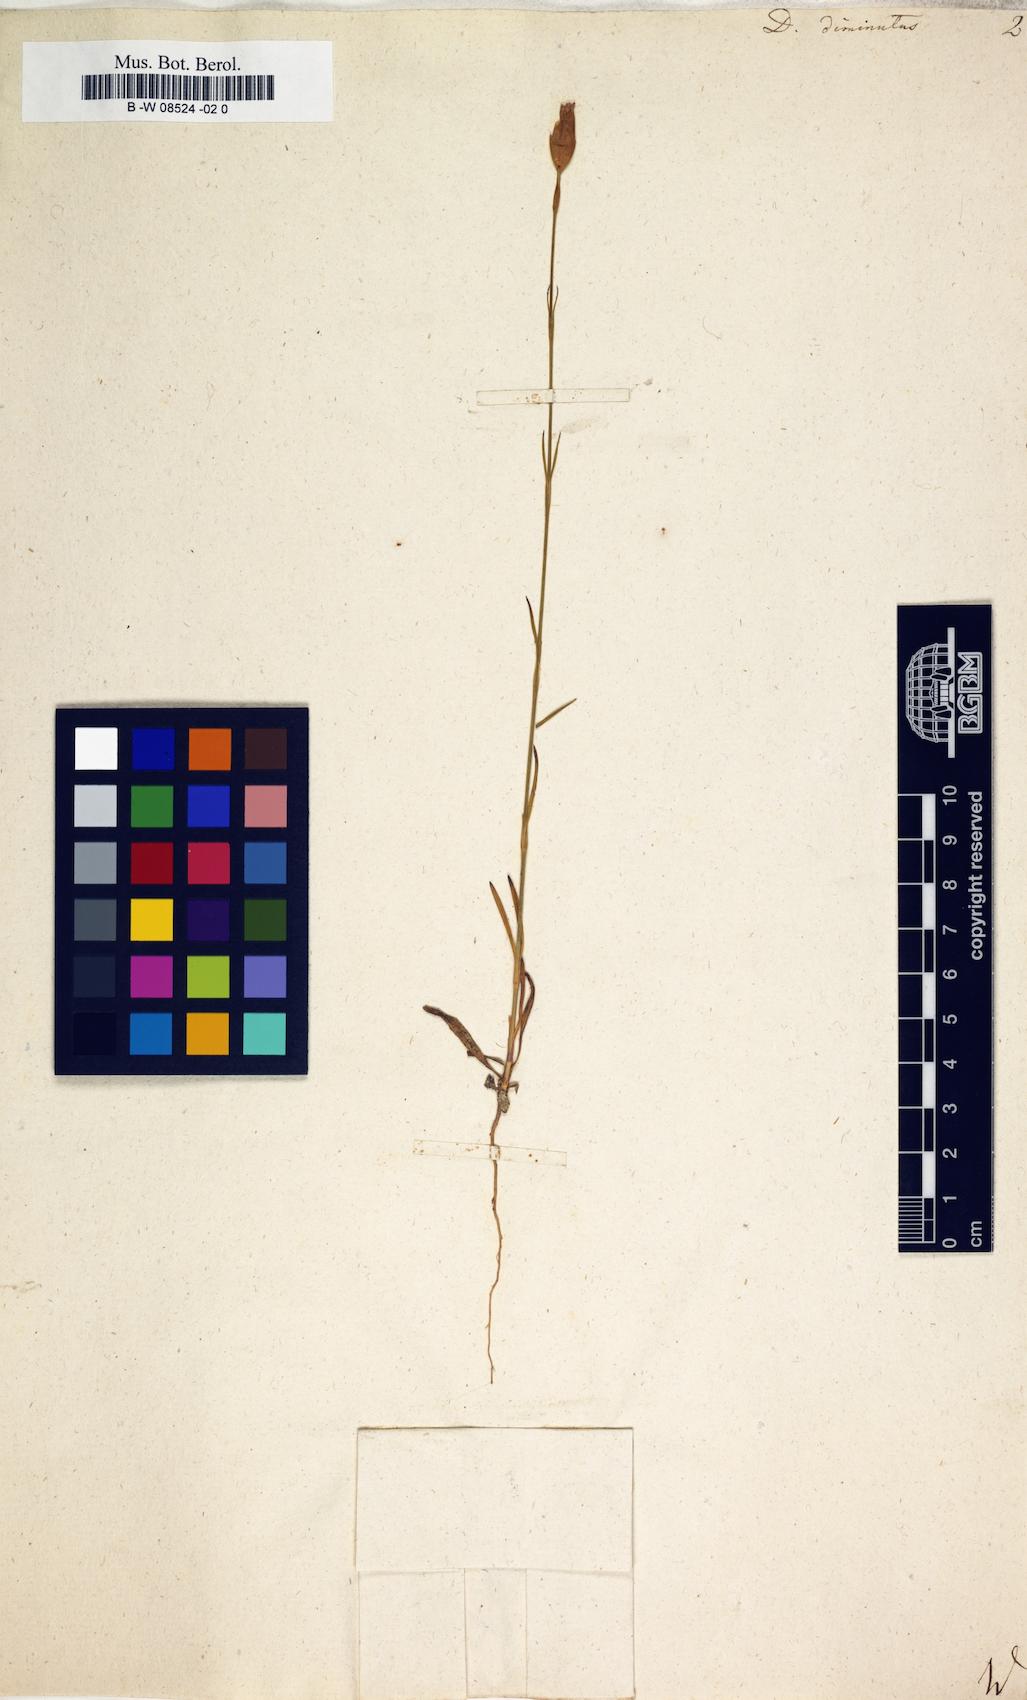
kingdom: Plantae
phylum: Tracheophyta
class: Magnoliopsida
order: Caryophyllales
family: Caryophyllaceae
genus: Petrorhagia
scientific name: Petrorhagia prolifera
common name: Proliferous pink
